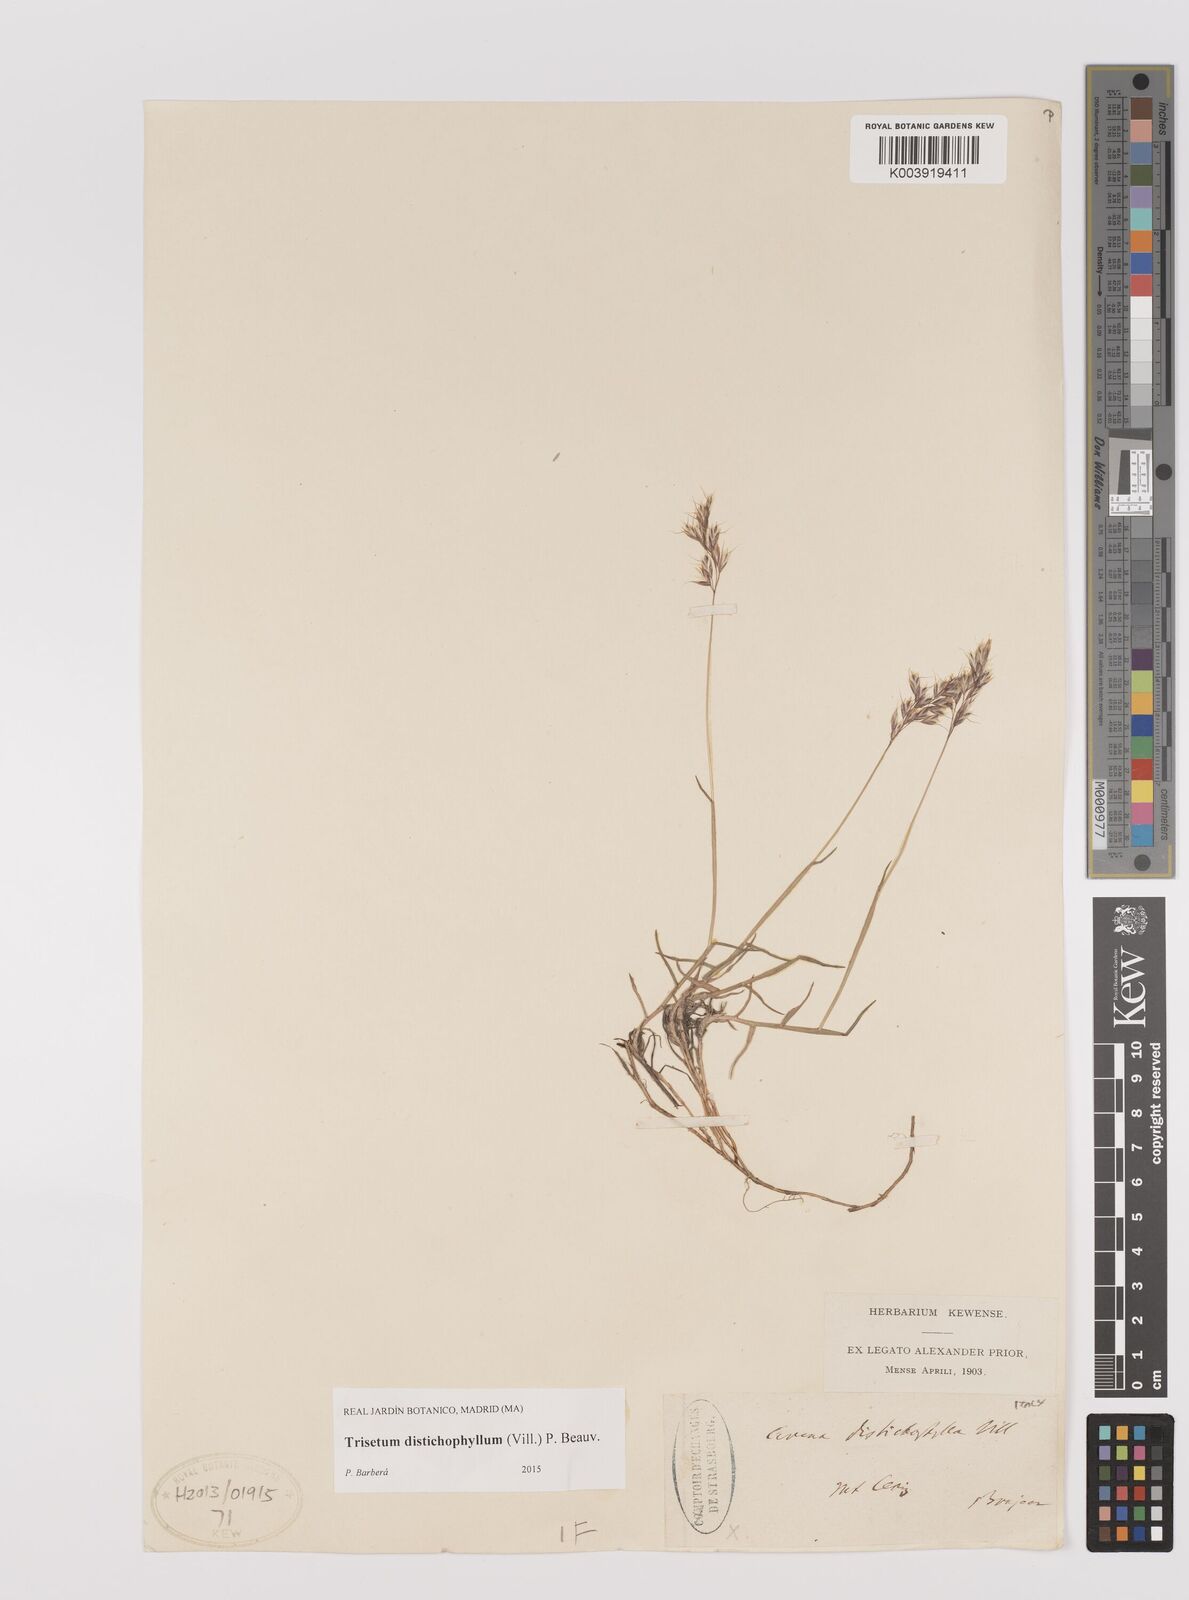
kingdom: Plantae
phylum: Tracheophyta
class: Liliopsida
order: Poales
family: Poaceae
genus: Acrospelion
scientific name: Acrospelion distichophyllum
